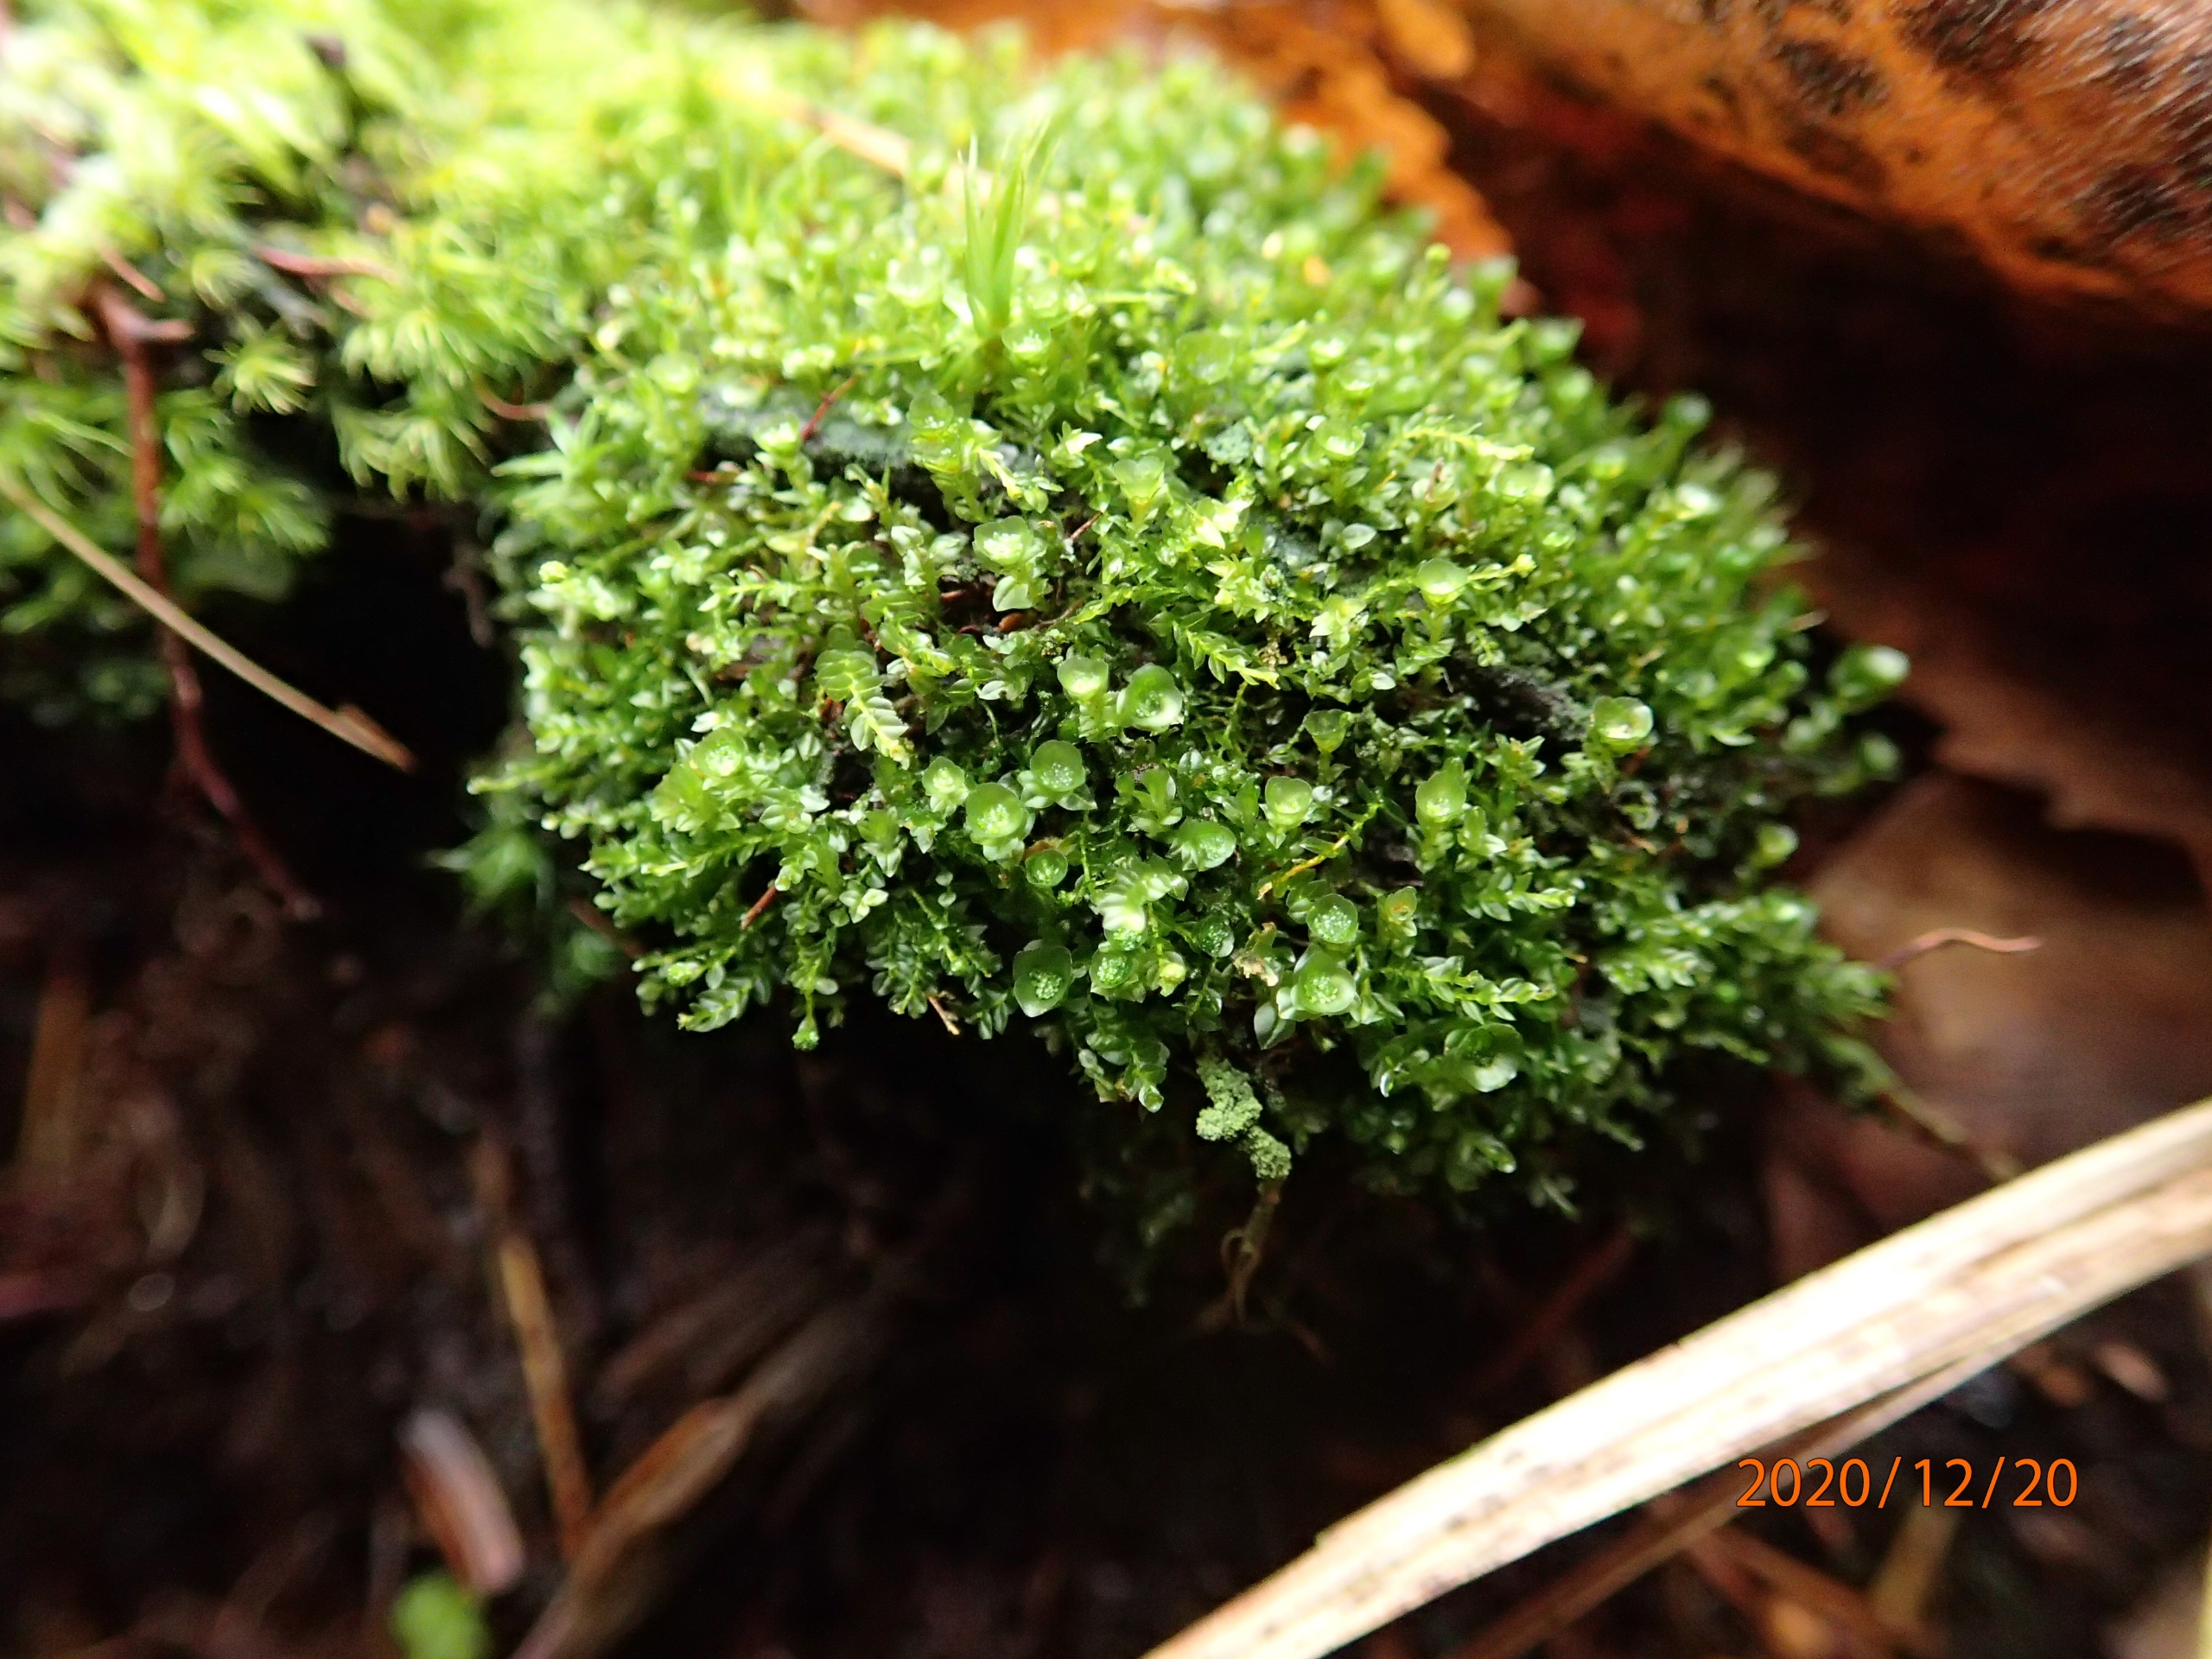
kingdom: Plantae
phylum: Bryophyta
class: Polytrichopsida
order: Tetraphidales
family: Tetraphidaceae
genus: Tetraphis
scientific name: Tetraphis pellucida
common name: Almindelig firtand
